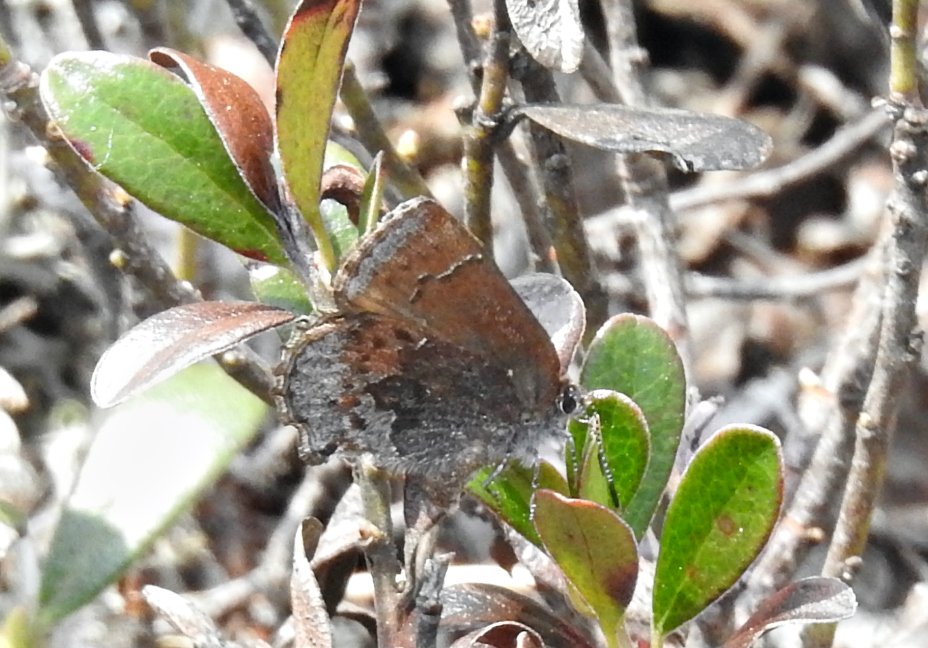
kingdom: Animalia
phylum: Arthropoda
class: Insecta
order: Lepidoptera
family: Lycaenidae
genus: Callophrys
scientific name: Callophrys polios
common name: Hoary Elfin
